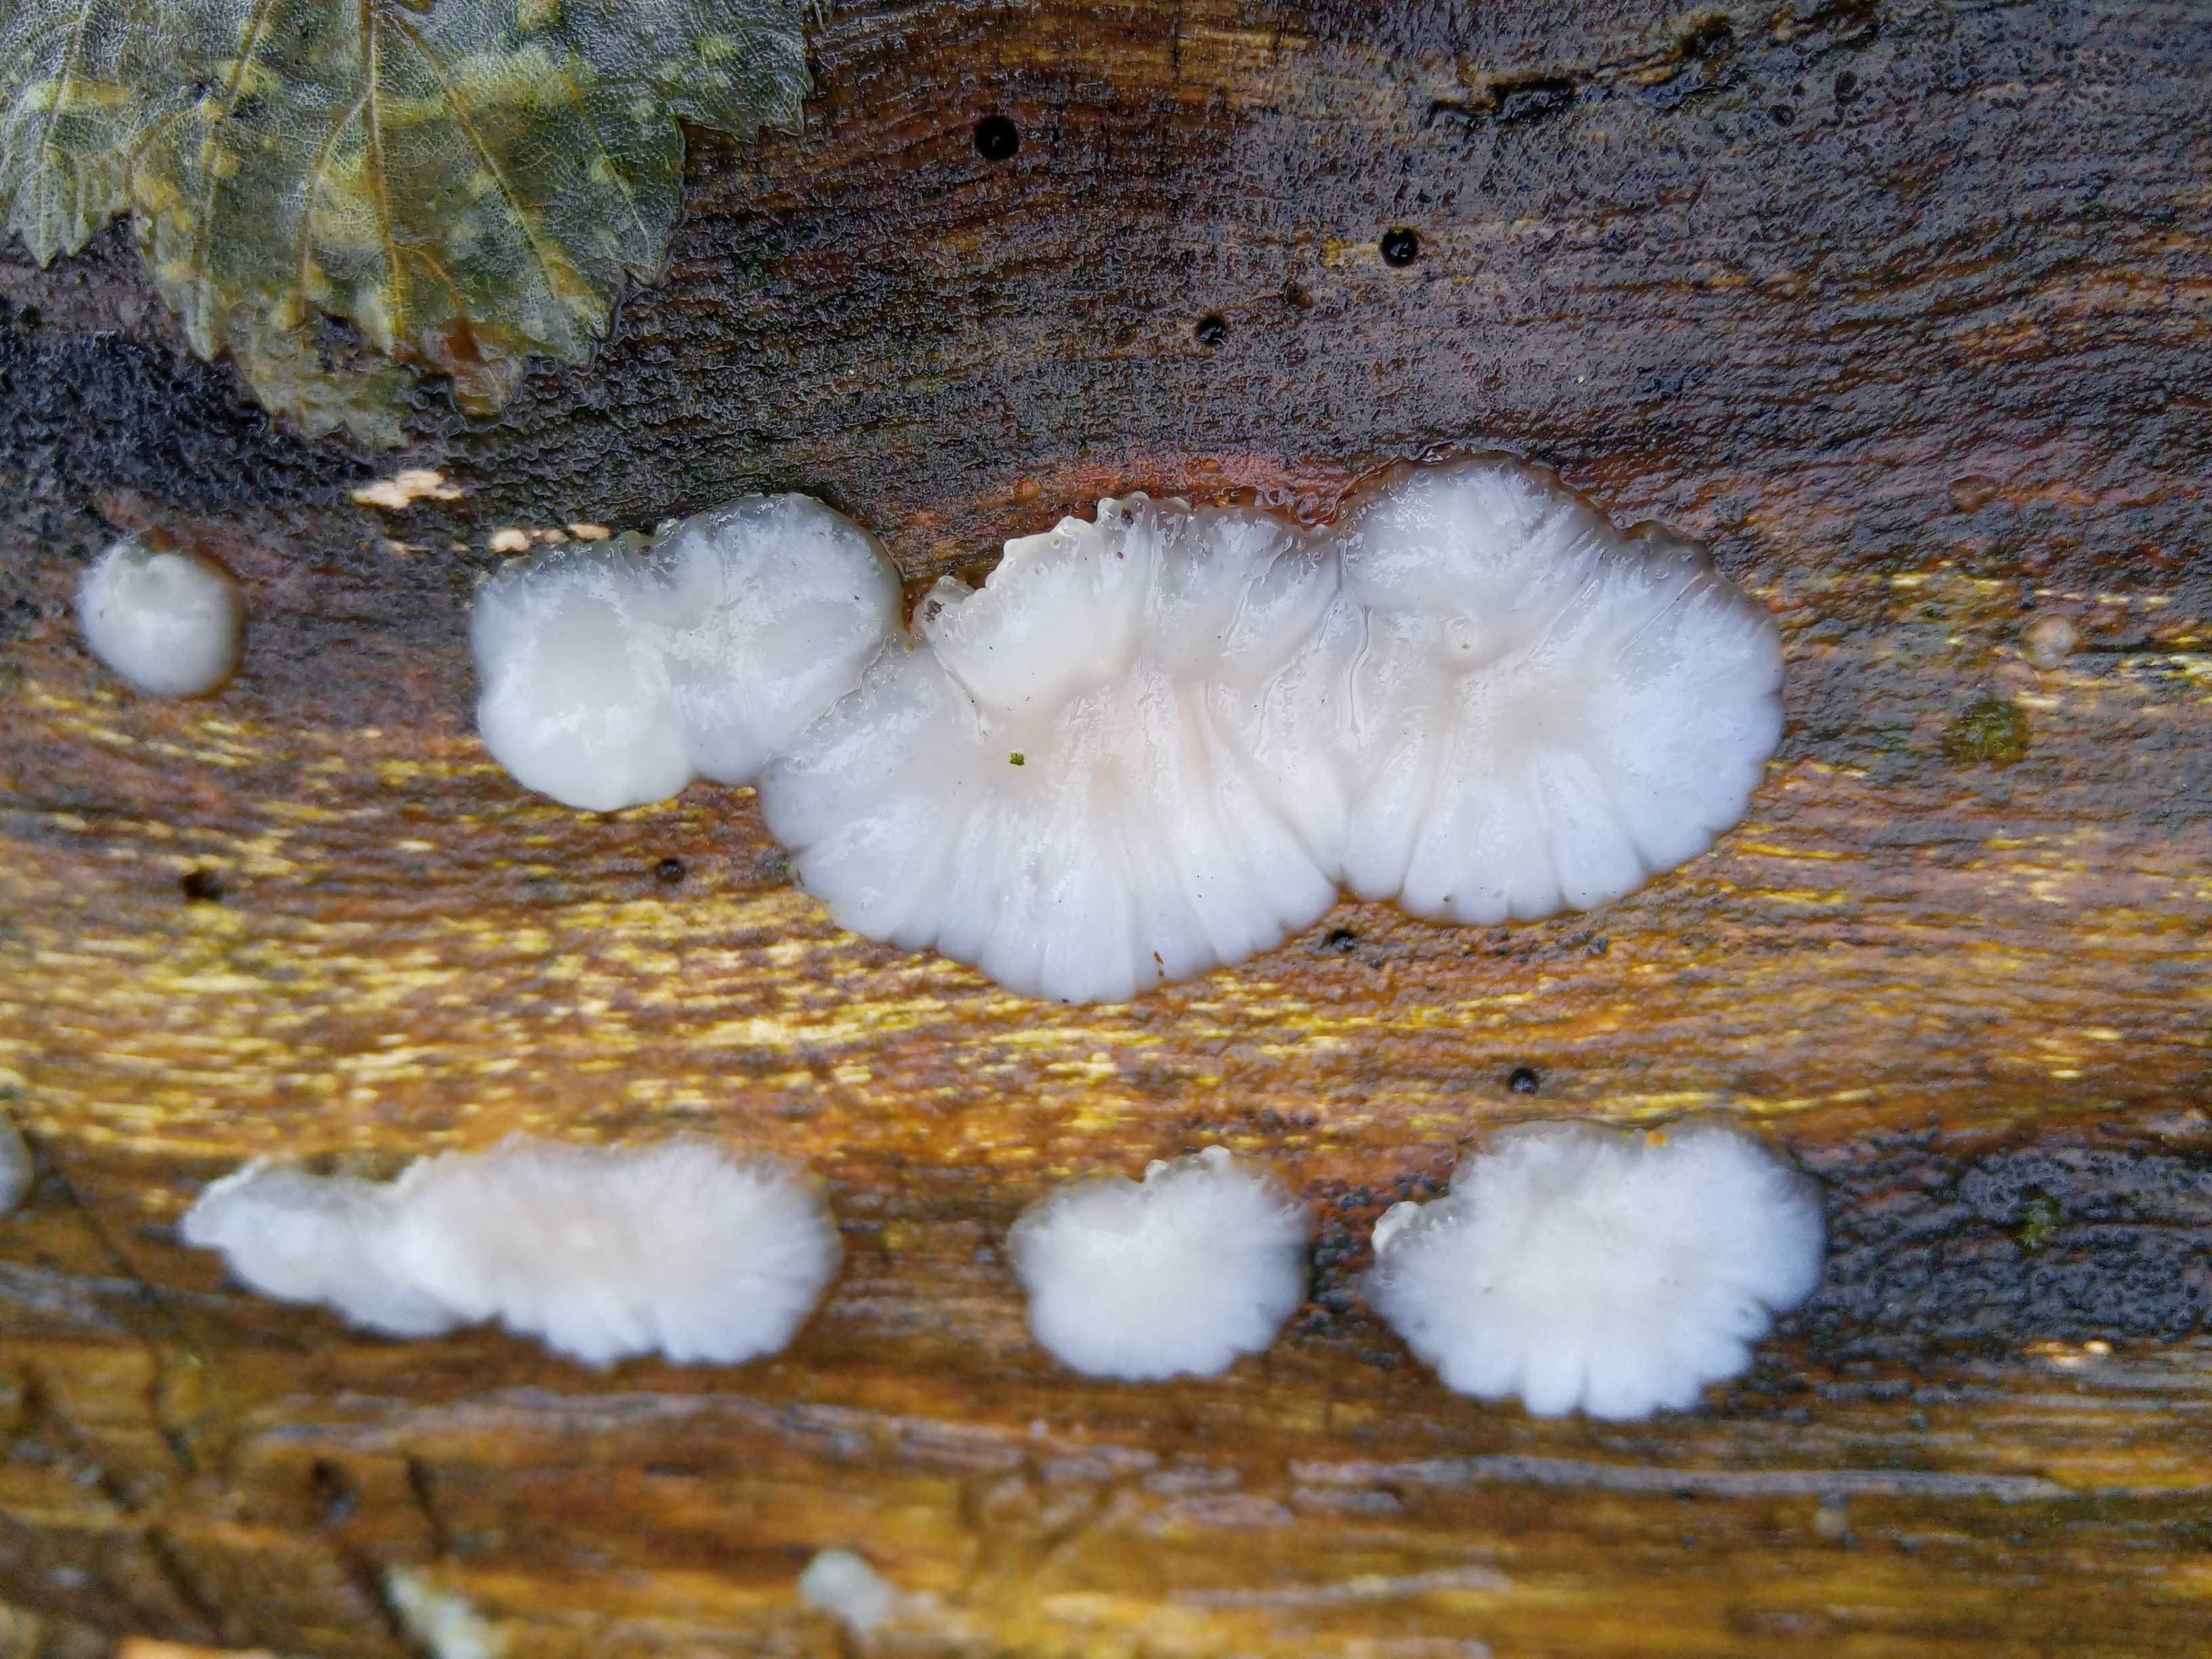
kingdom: Fungi
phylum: Basidiomycota
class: Agaricomycetes
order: Auriculariales
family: Auriculariaceae
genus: Exidia
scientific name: Exidia thuretiana
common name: hvidlig bævretop
